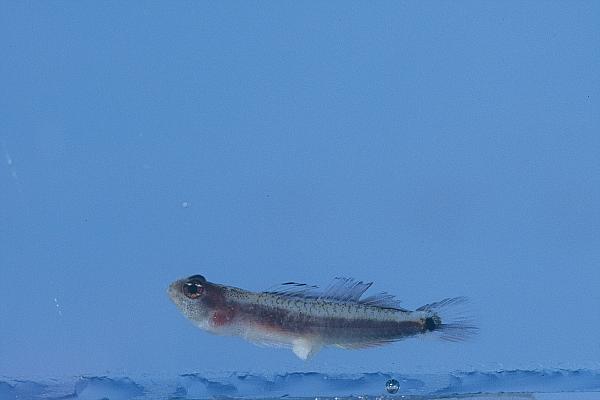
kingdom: Animalia
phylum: Chordata
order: Perciformes
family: Gobiidae
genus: Eviota
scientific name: Eviota sebreei
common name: Sebree's pygmy goby
